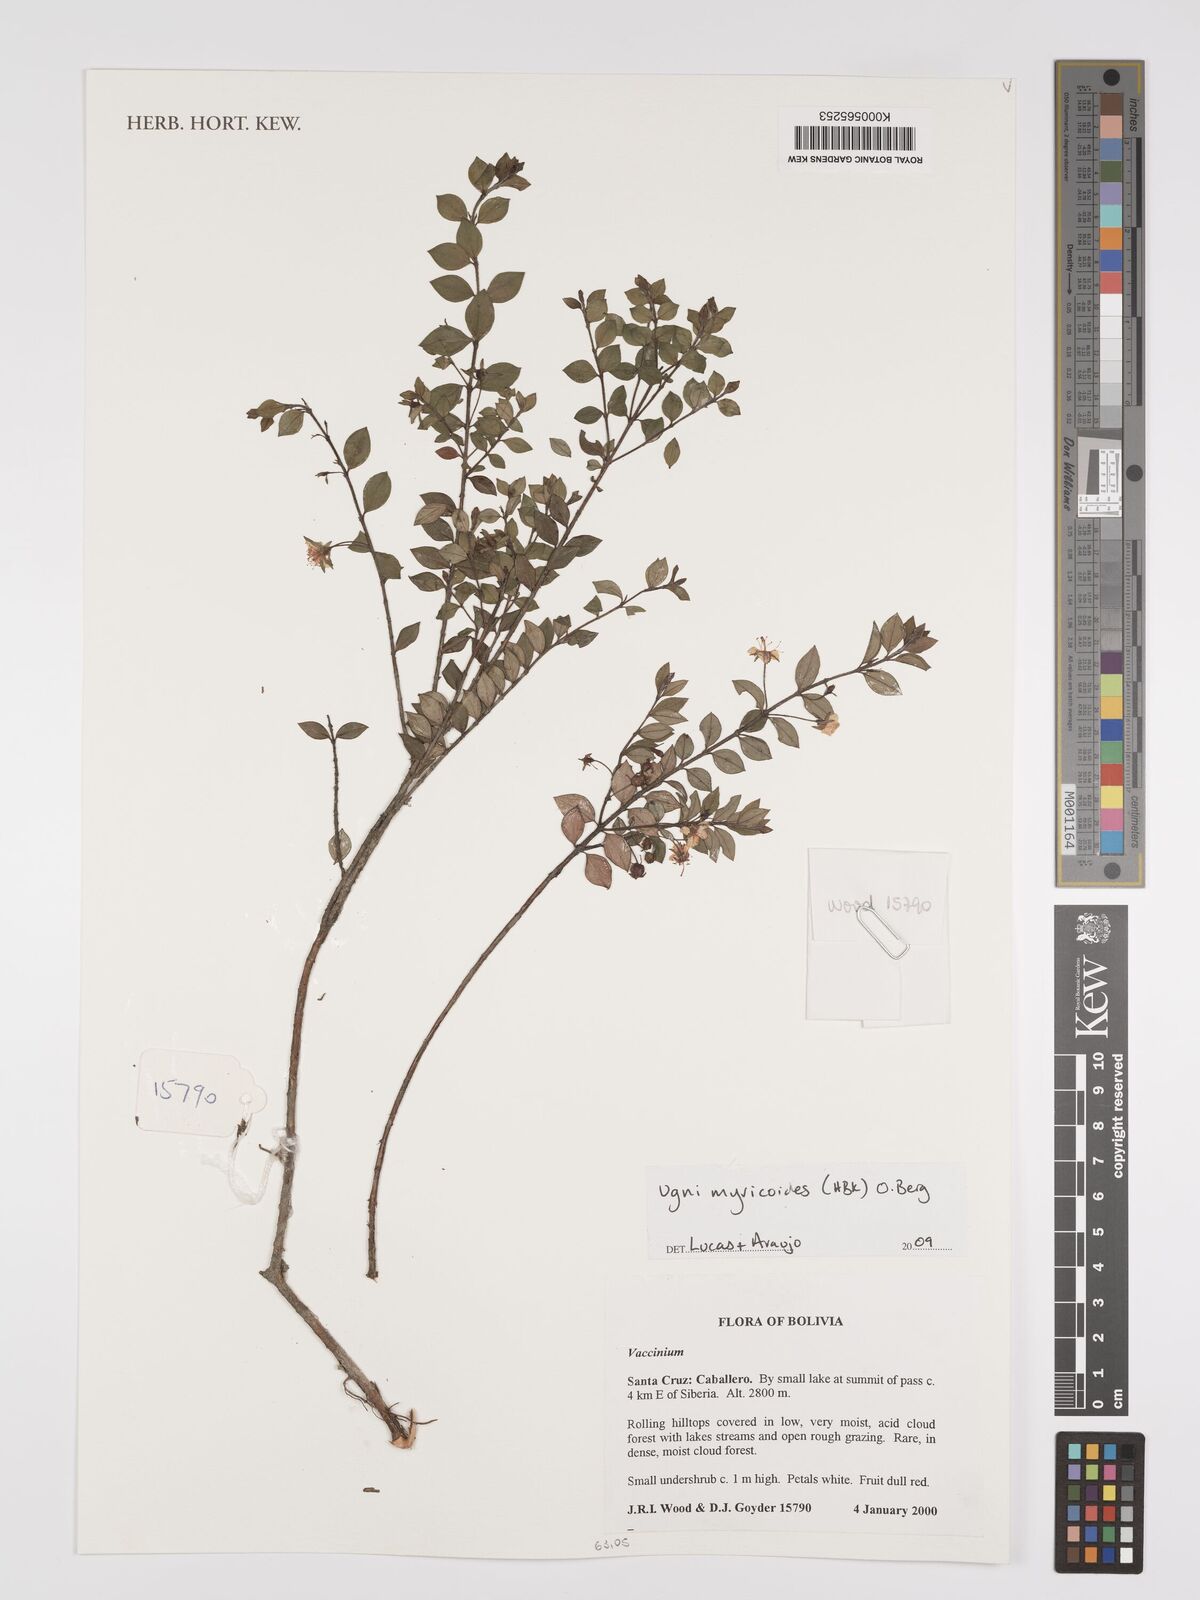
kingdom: Plantae
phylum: Tracheophyta
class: Magnoliopsida
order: Myrtales
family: Myrtaceae
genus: Ugni
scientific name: Ugni myricoides
